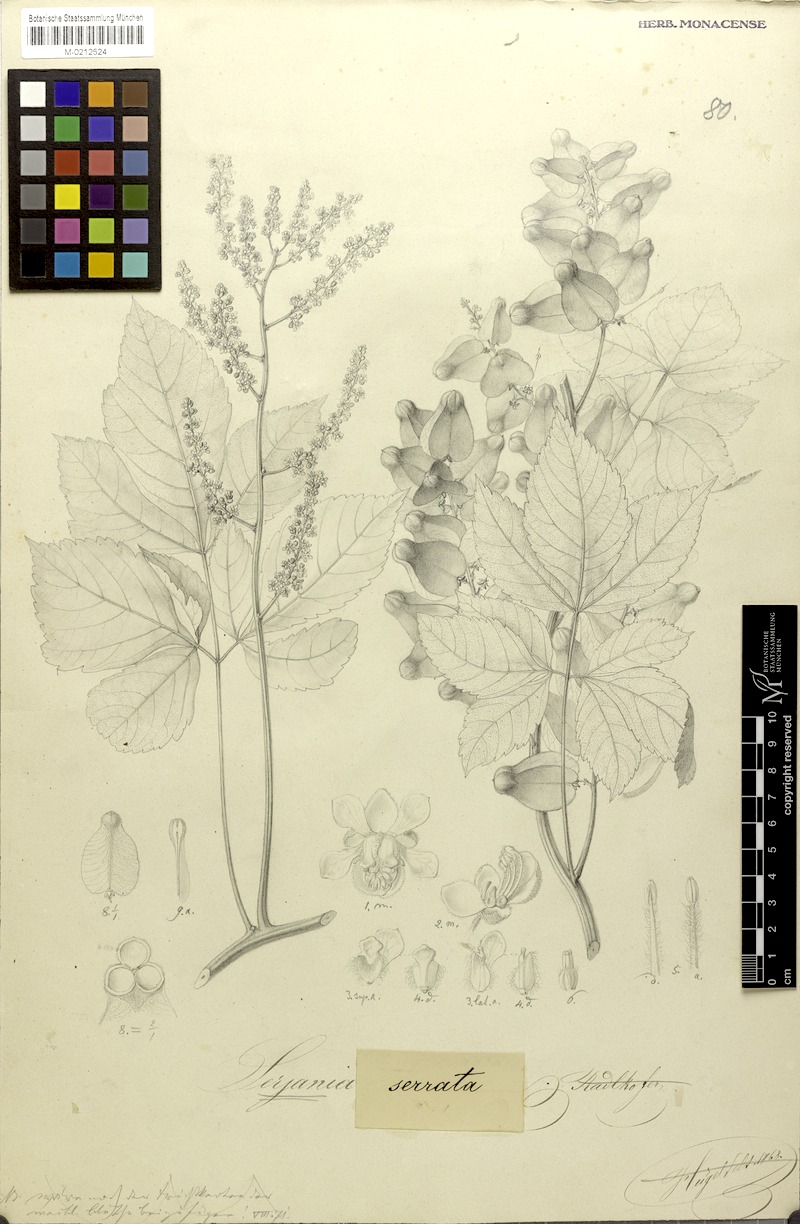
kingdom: Plantae
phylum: Tracheophyta
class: Magnoliopsida
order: Sapindales
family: Sapindaceae
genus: Serjania
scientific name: Serjania serrata
